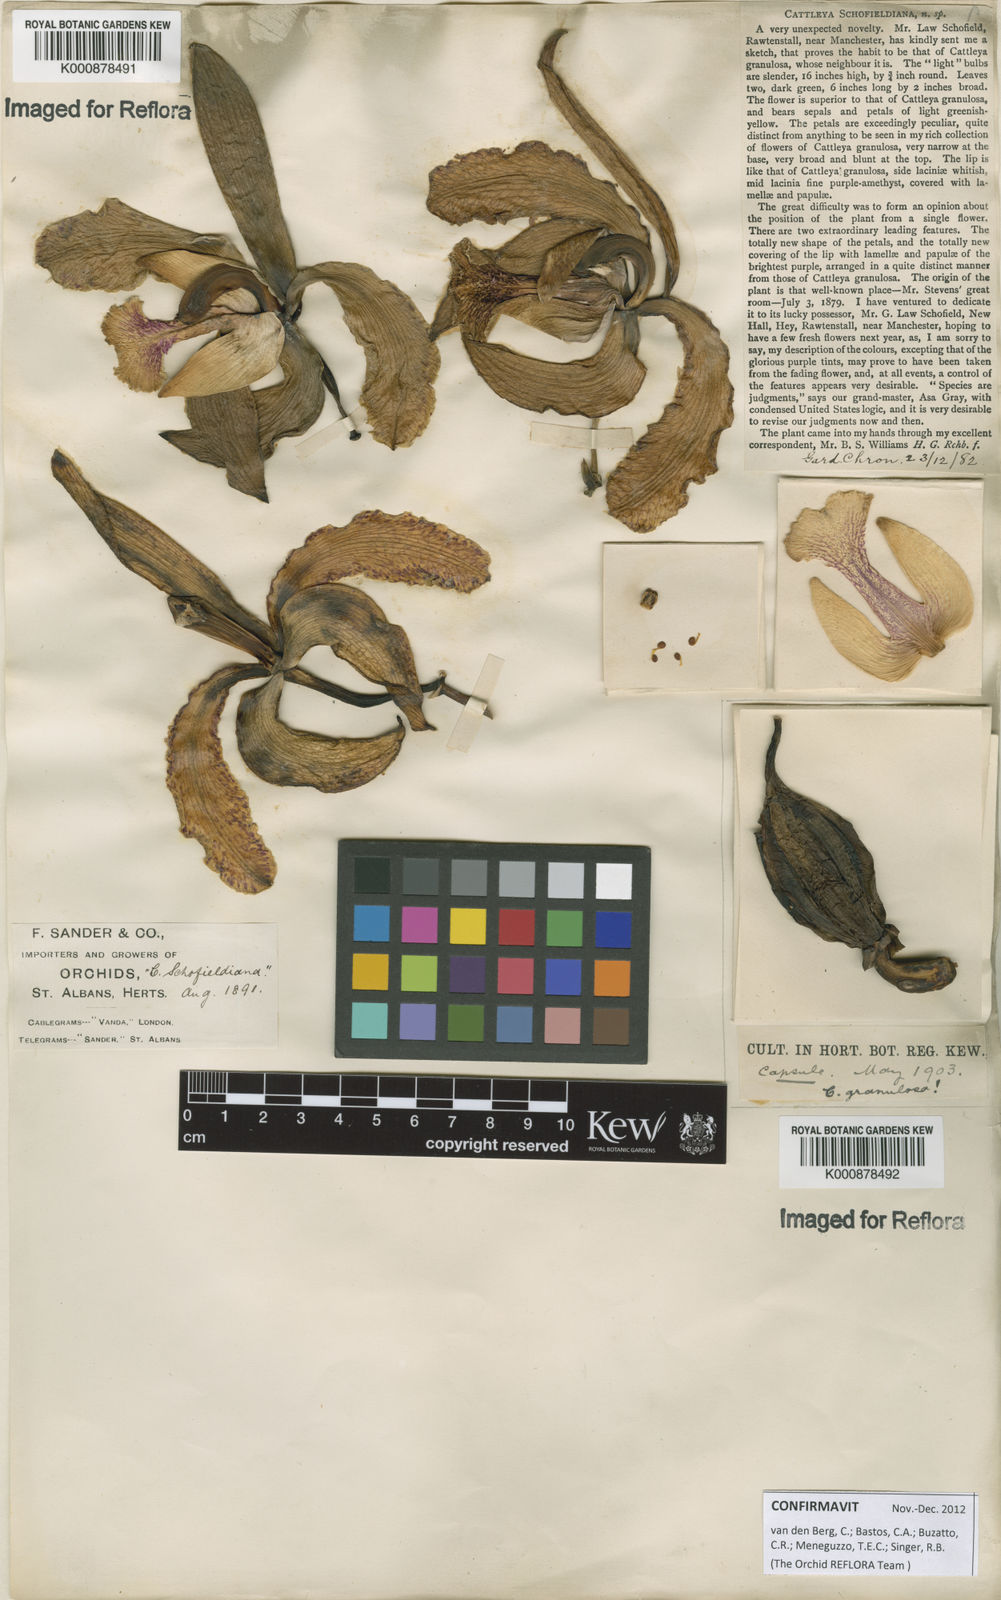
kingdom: Plantae
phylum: Tracheophyta
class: Liliopsida
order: Asparagales
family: Orchidaceae
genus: Cattleya
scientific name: Cattleya schofieldiana
